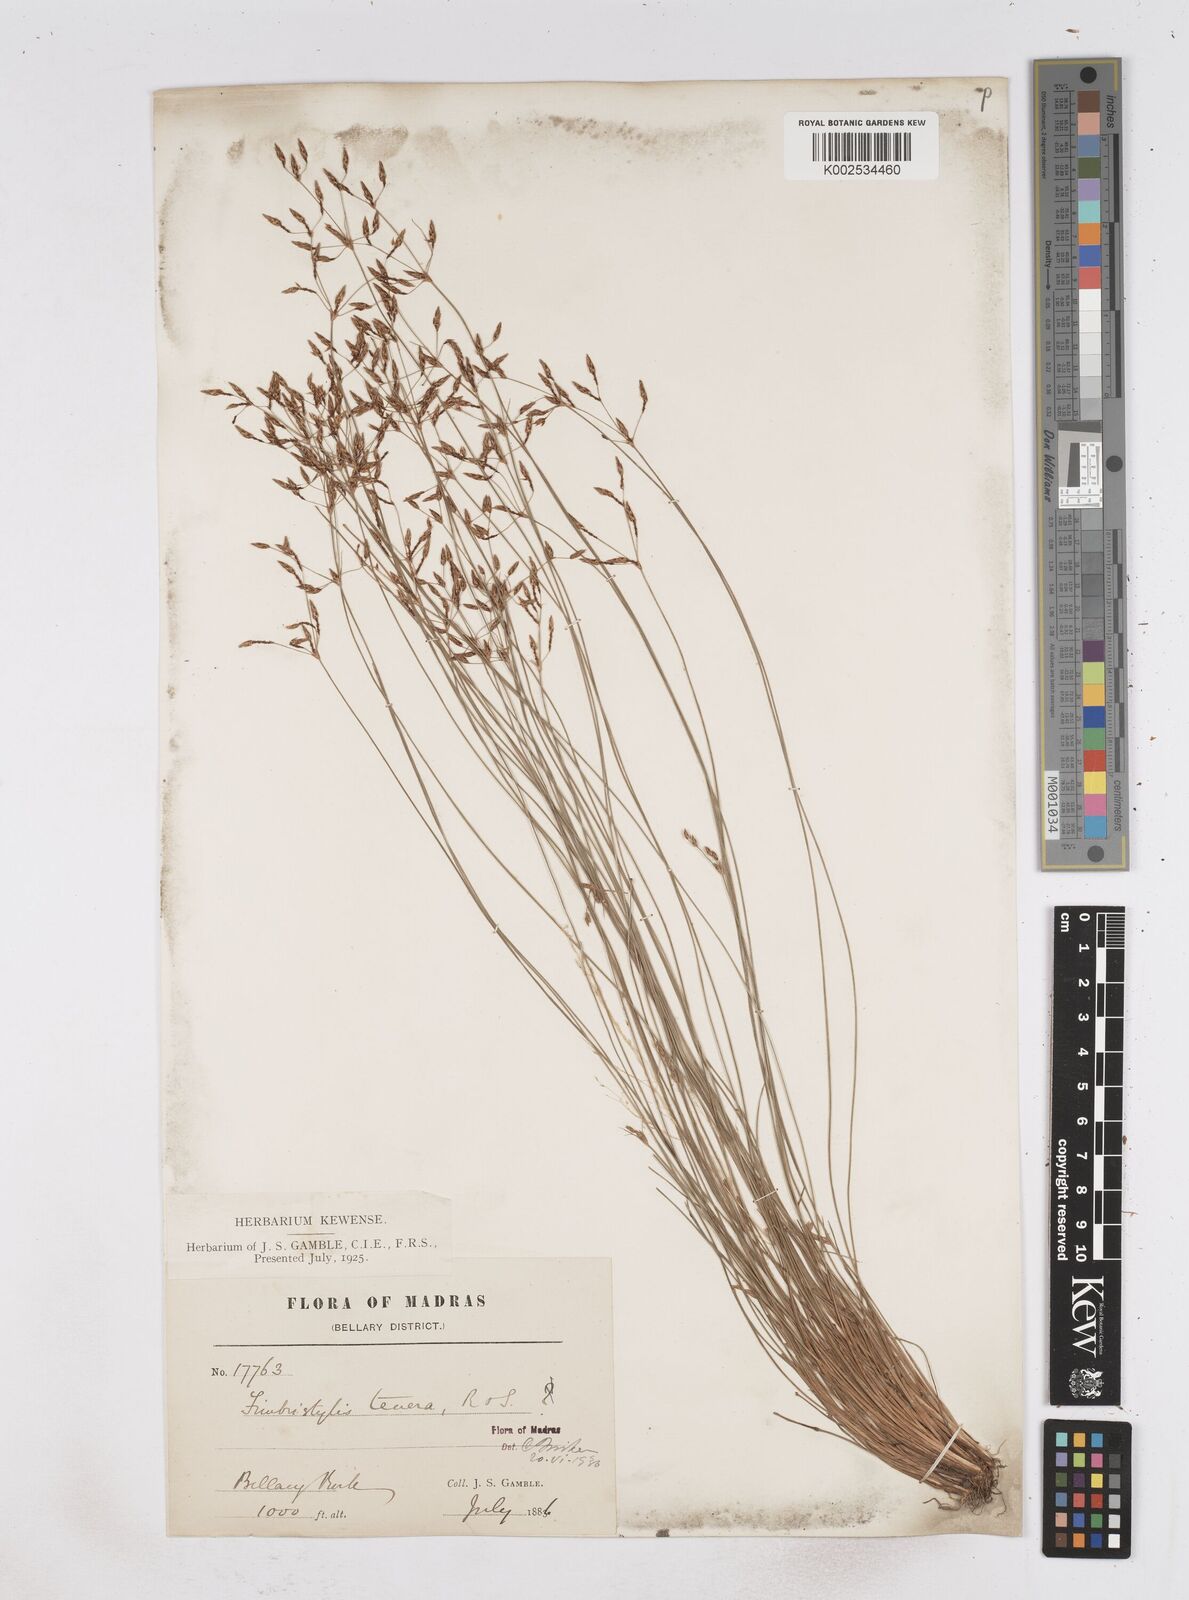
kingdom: Plantae
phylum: Tracheophyta
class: Liliopsida
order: Poales
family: Cyperaceae
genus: Fimbristylis
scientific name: Fimbristylis tenera
